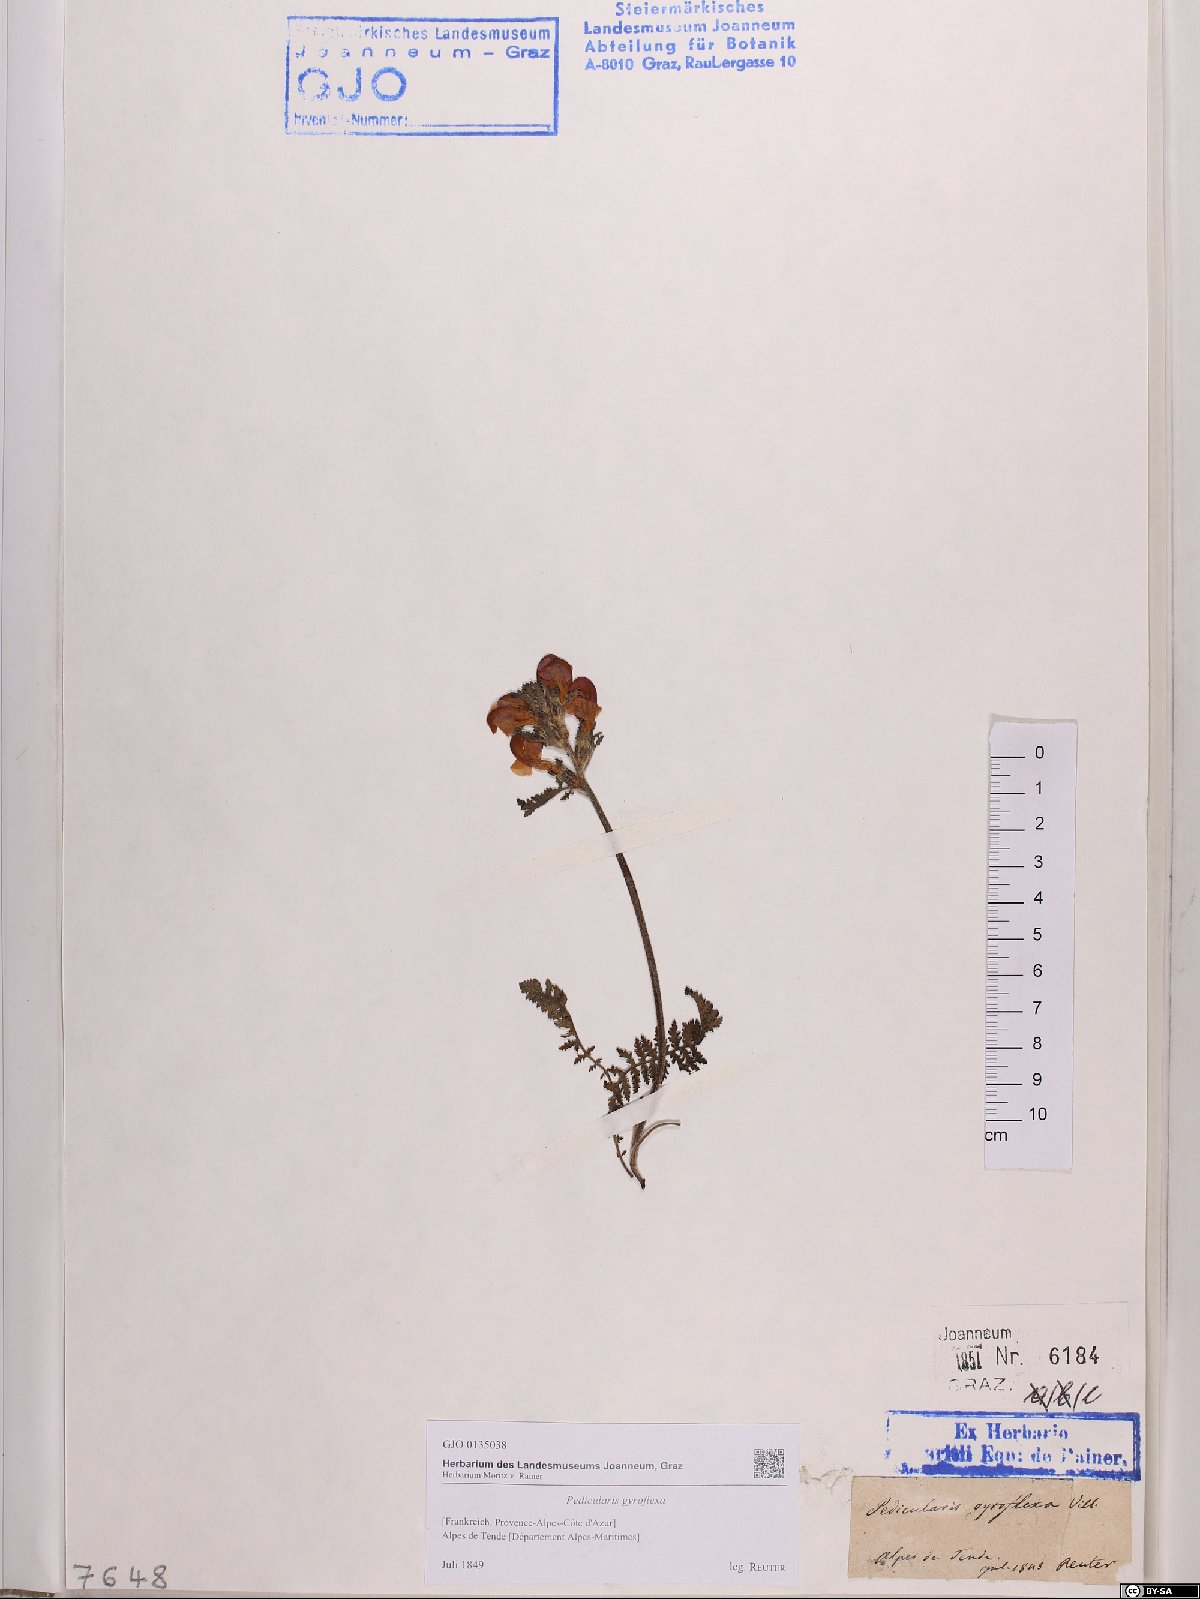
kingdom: Plantae
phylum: Tracheophyta
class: Magnoliopsida
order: Lamiales
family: Orobanchaceae
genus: Pedicularis
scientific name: Pedicularis gyroflexa
